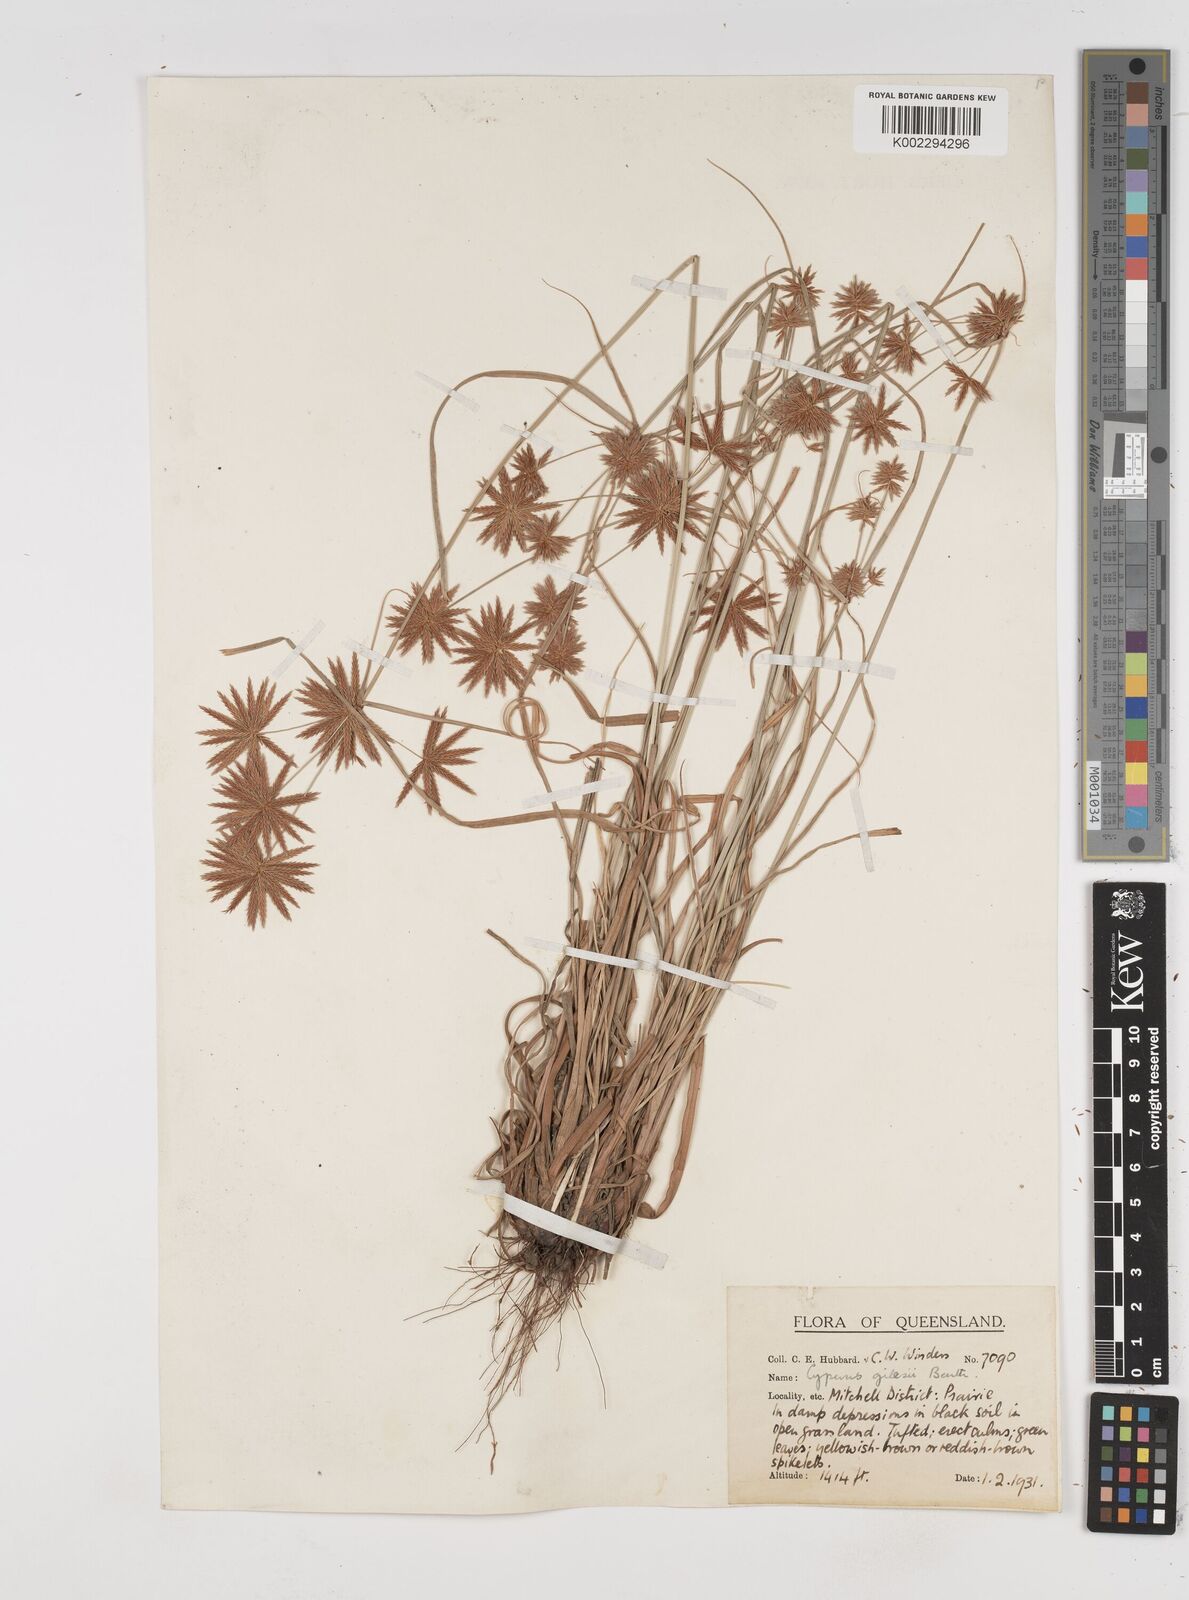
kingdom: Plantae
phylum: Tracheophyta
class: Liliopsida
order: Poales
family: Cyperaceae
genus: Cyperus
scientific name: Cyperus gilesii
